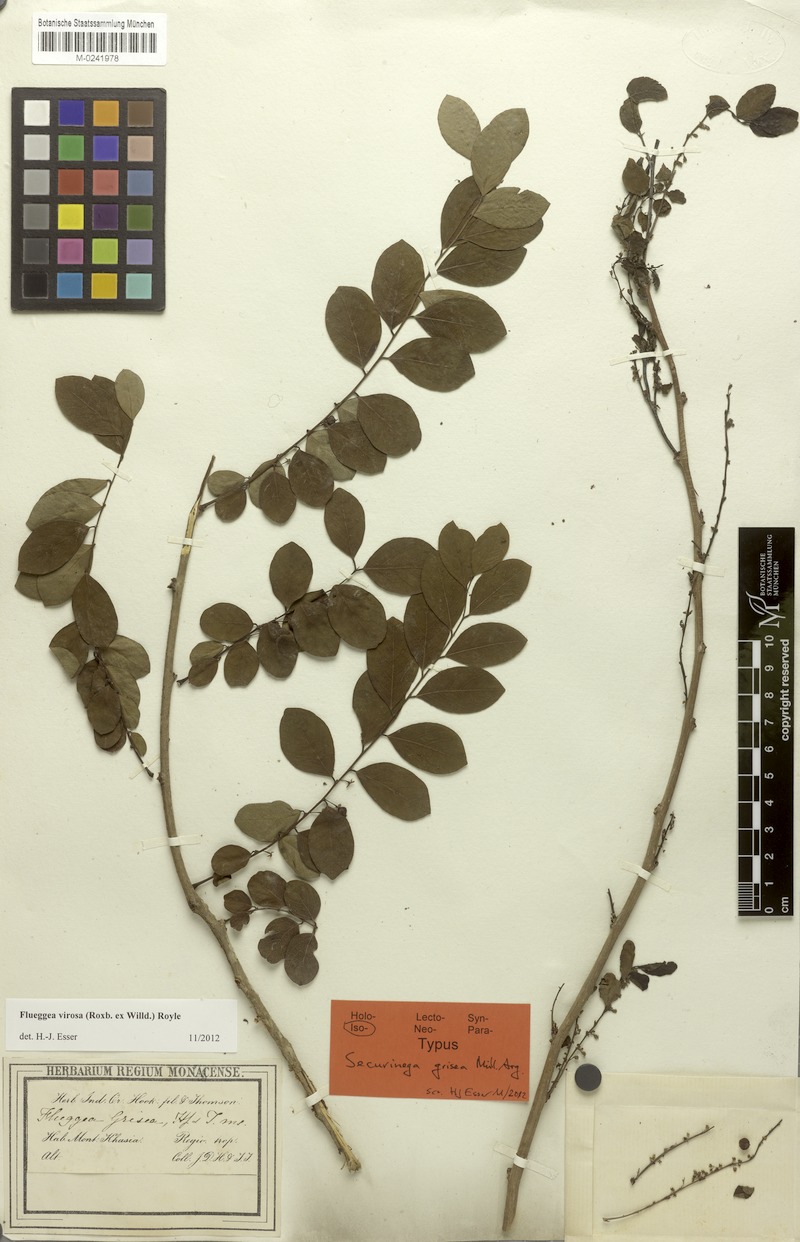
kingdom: Plantae
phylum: Tracheophyta
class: Magnoliopsida
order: Malpighiales
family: Phyllanthaceae
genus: Flueggea
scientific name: Flueggea virosa
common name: Common bushweed
